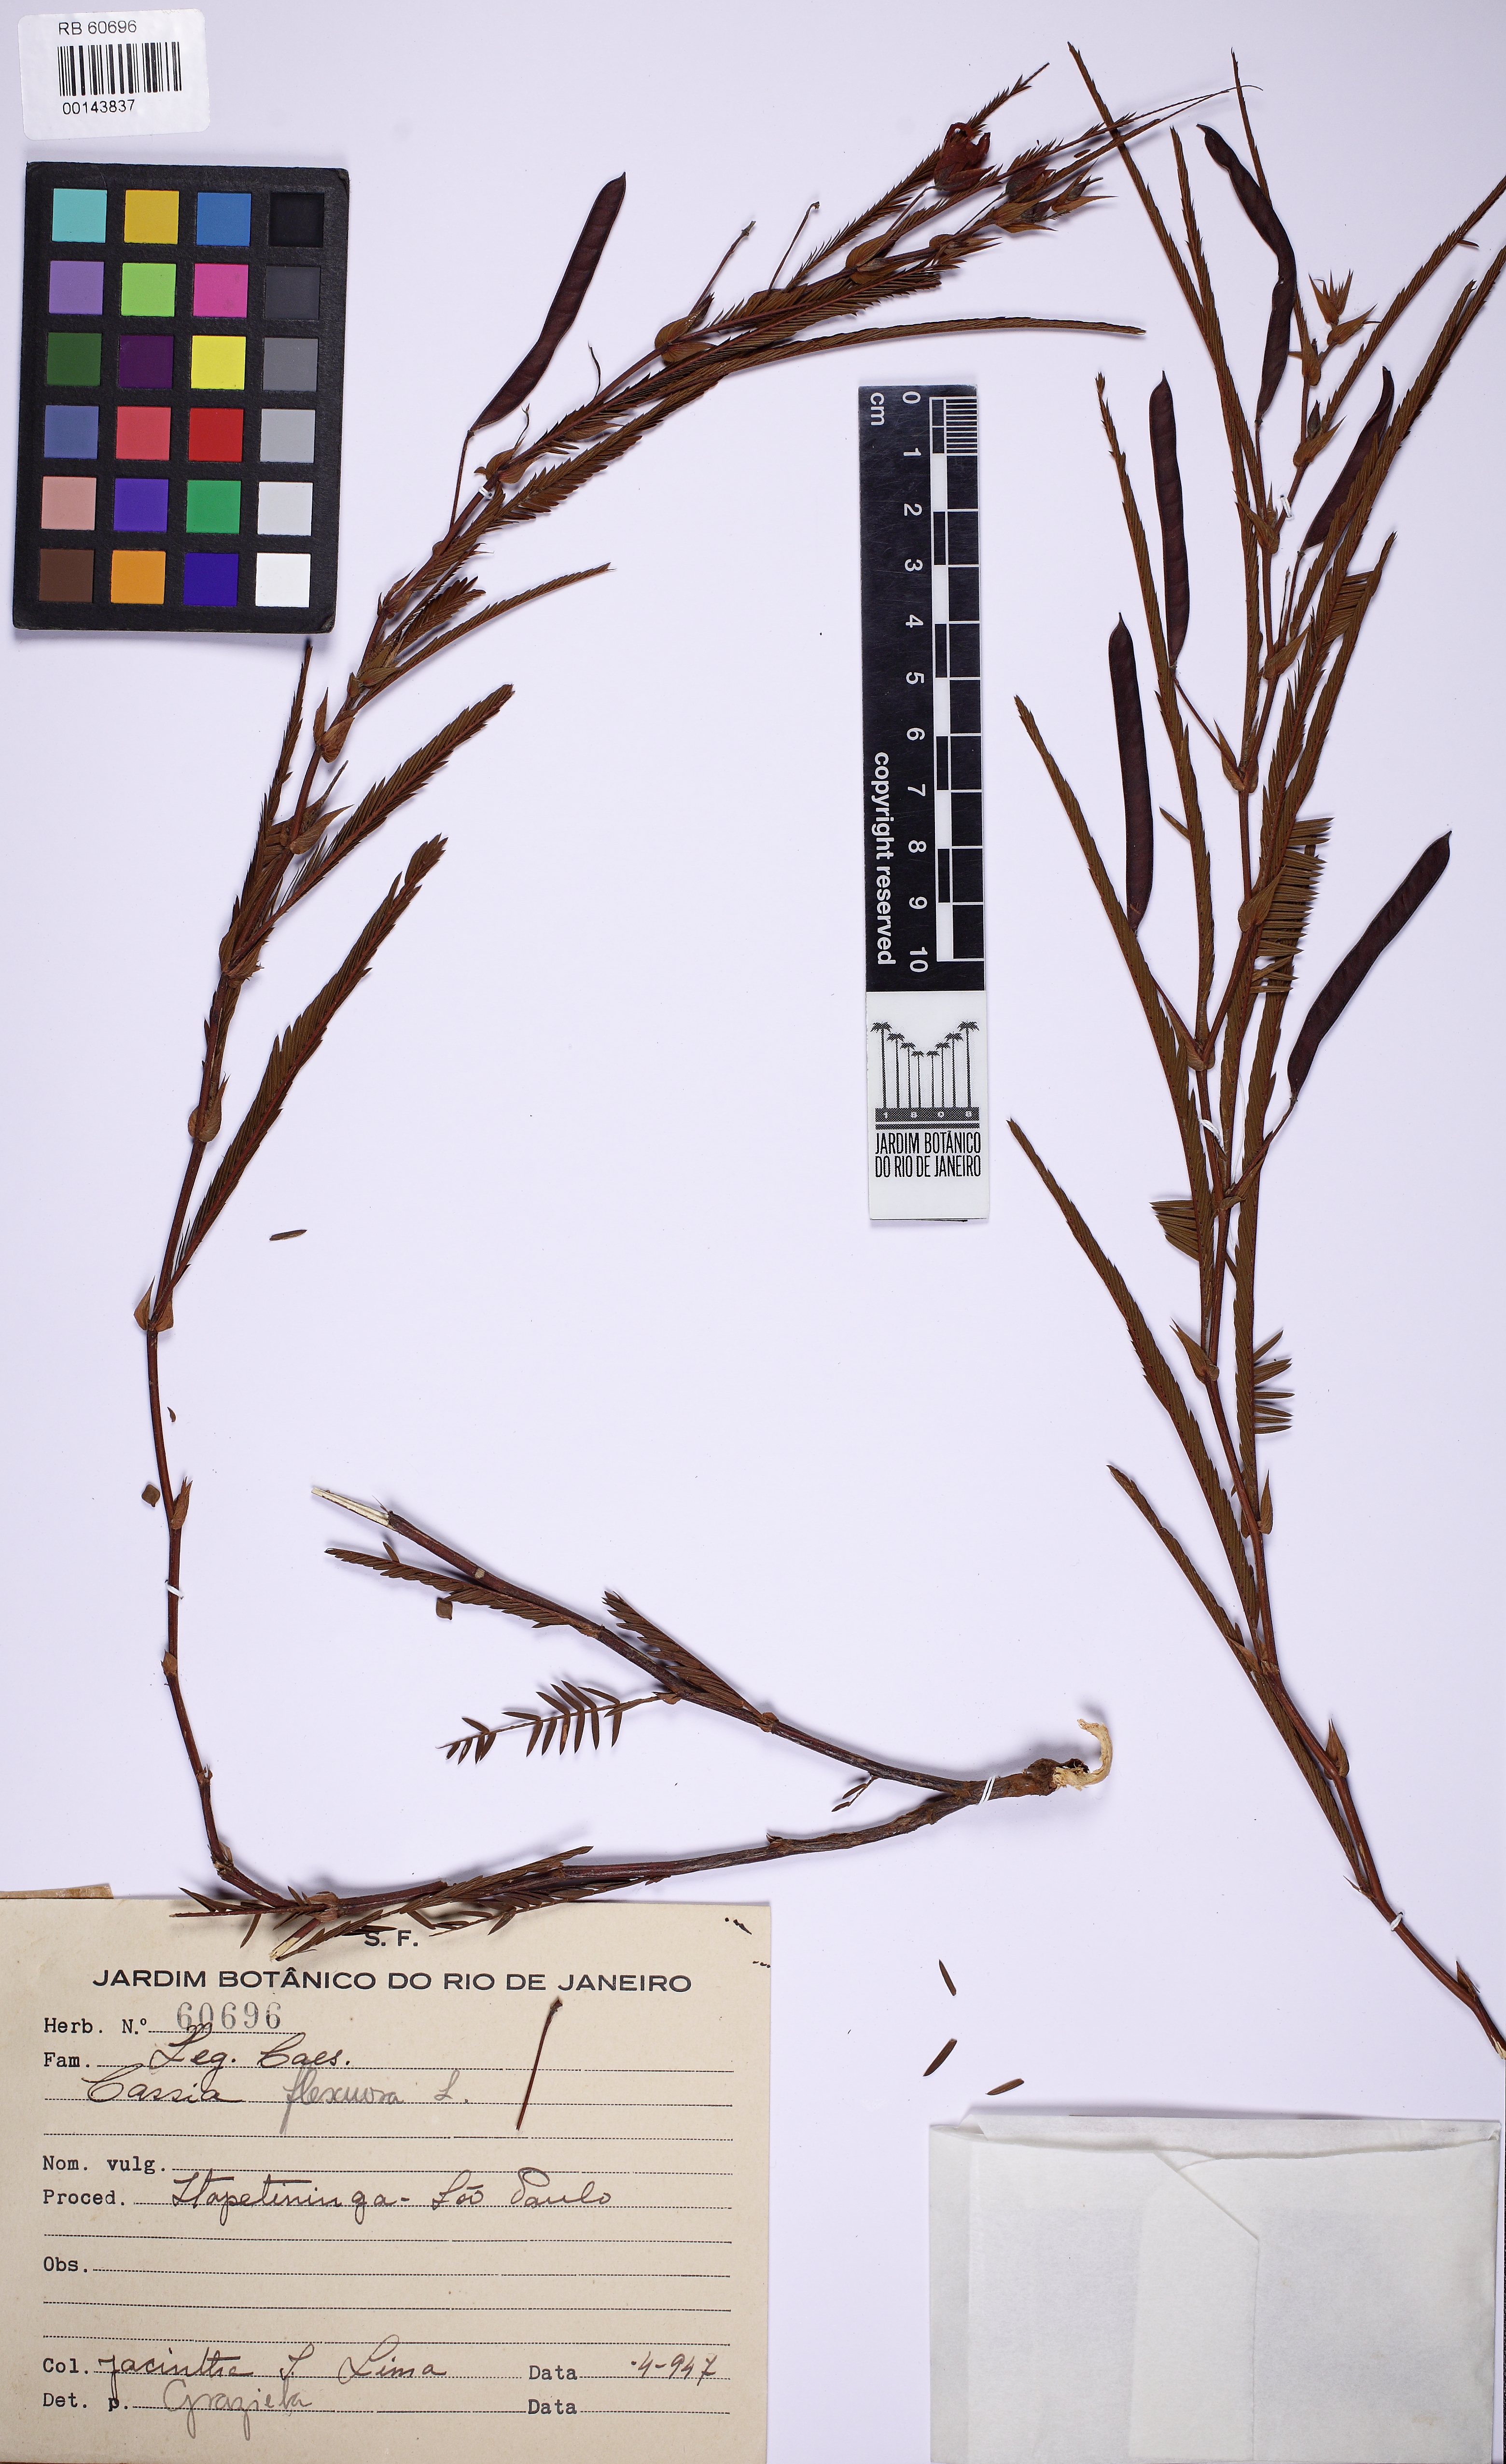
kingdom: Plantae
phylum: Tracheophyta
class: Magnoliopsida
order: Fabales
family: Fabaceae
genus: Chamaecrista
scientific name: Chamaecrista flexuosa
